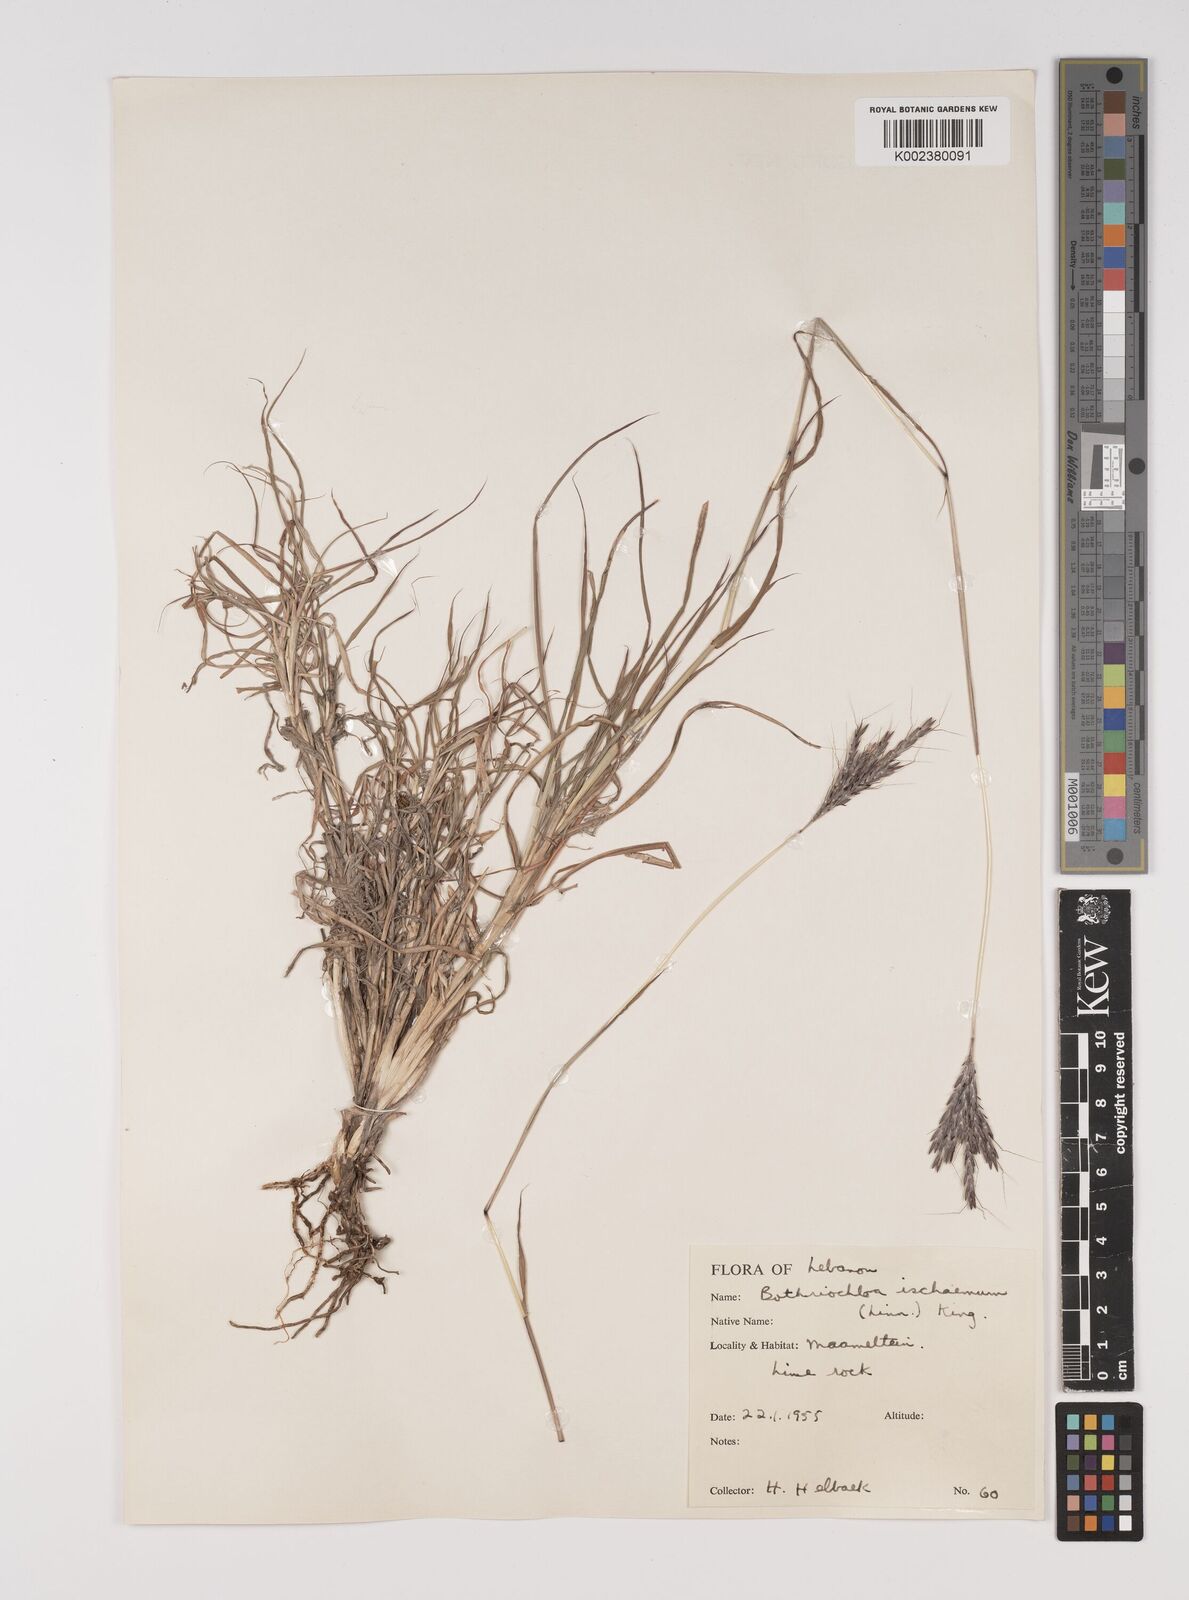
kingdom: Plantae
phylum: Tracheophyta
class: Liliopsida
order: Poales
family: Poaceae
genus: Bothriochloa
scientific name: Bothriochloa ischaemum
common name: Yellow bluestem
